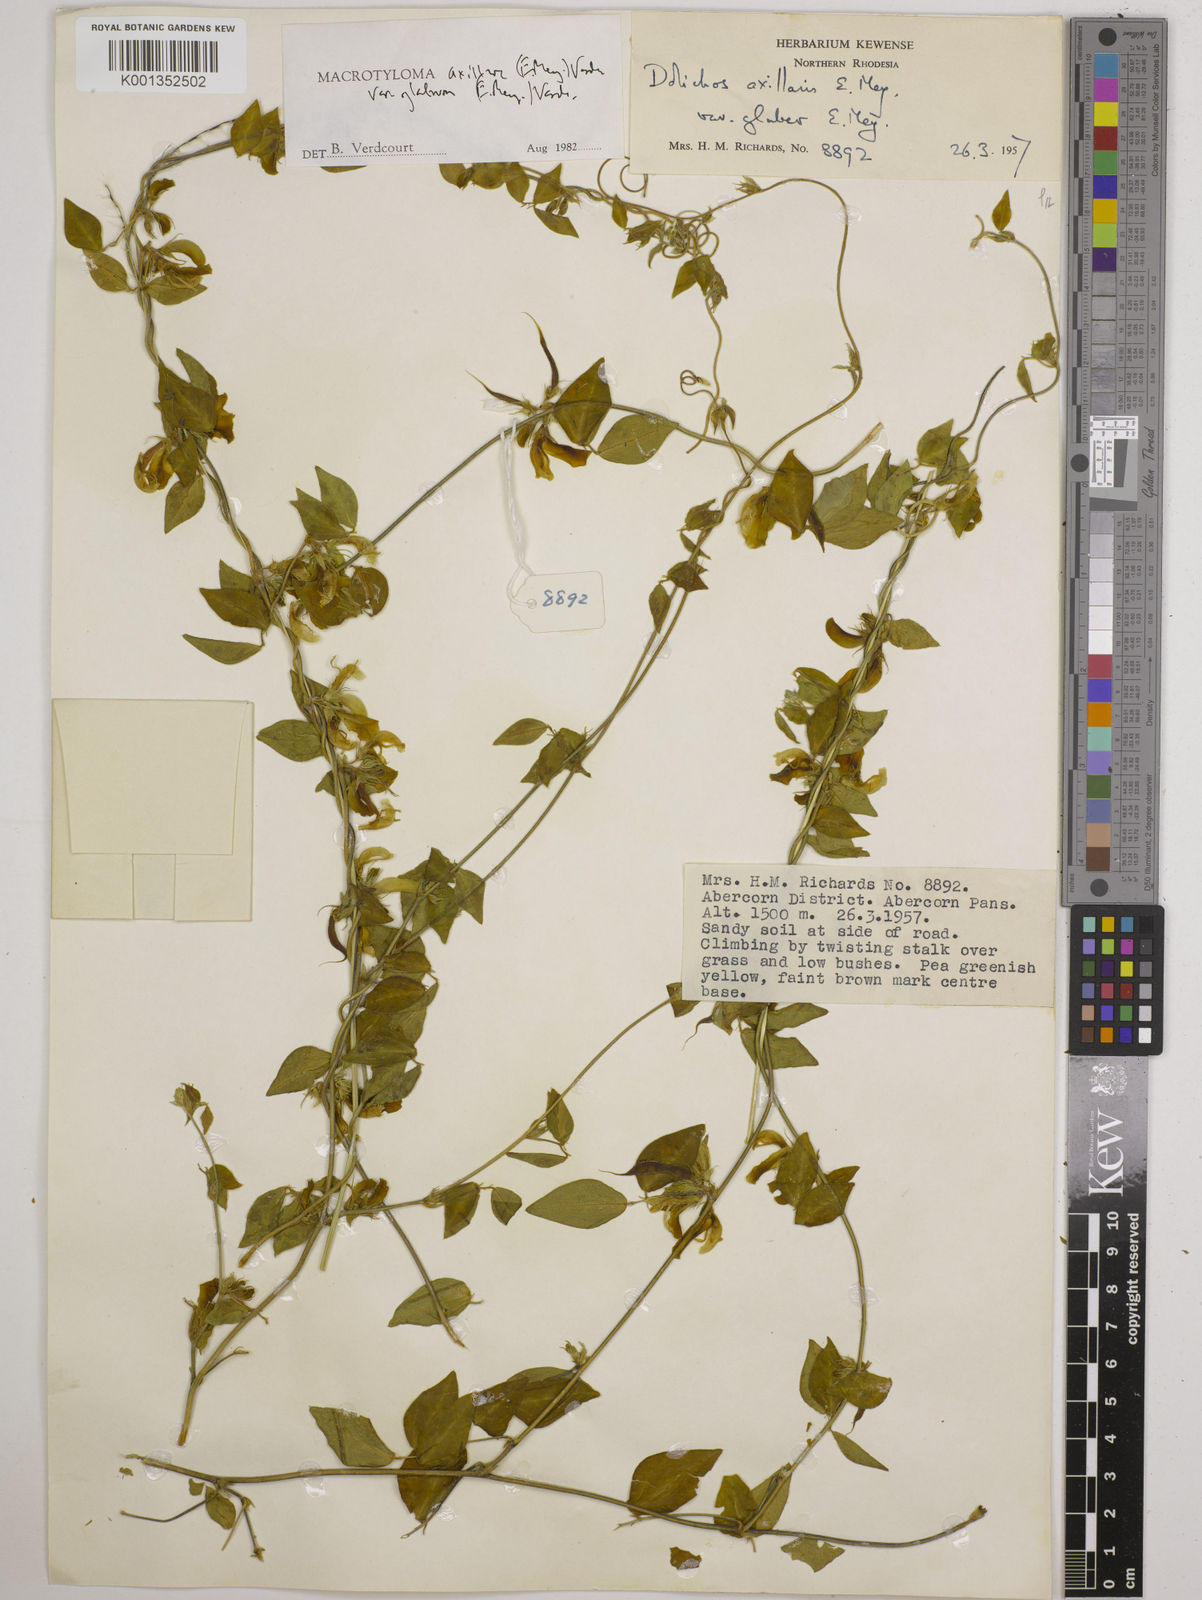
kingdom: Plantae
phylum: Tracheophyta
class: Magnoliopsida
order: Fabales
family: Fabaceae
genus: Macrotyloma
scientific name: Macrotyloma
